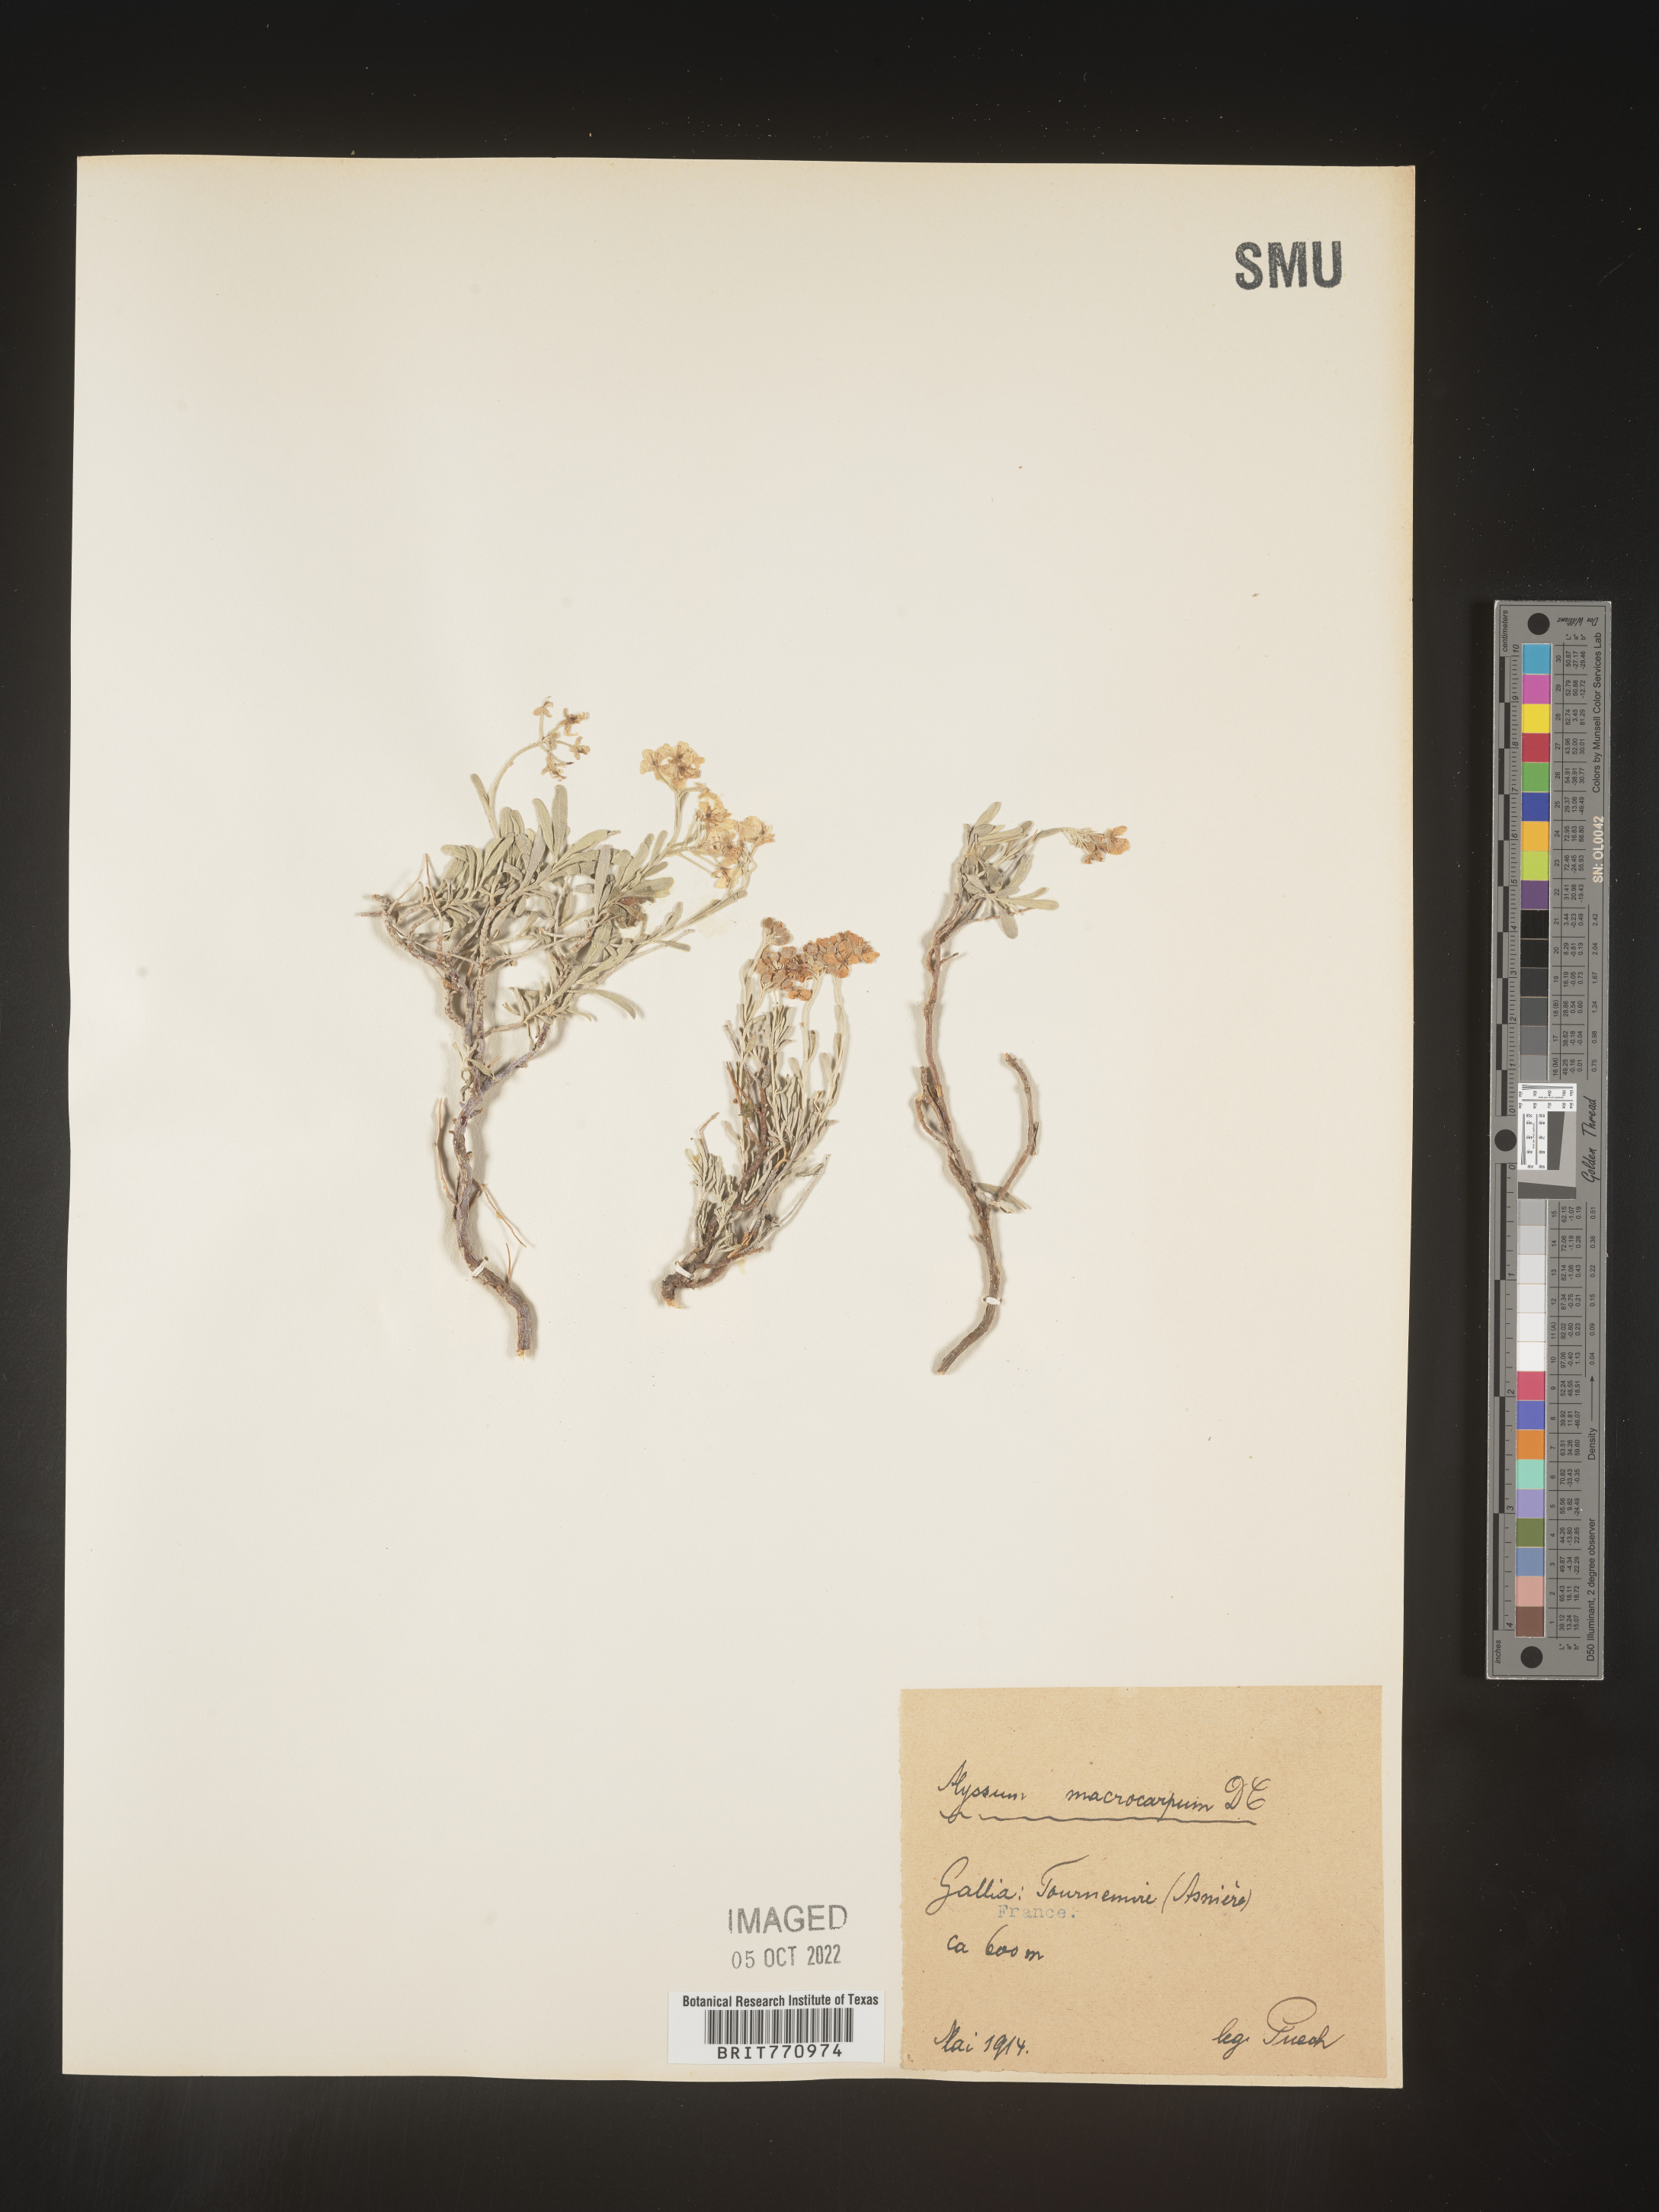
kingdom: Plantae
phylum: Tracheophyta
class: Magnoliopsida
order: Brassicales
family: Brassicaceae
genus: Alyssum
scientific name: Alyssum
